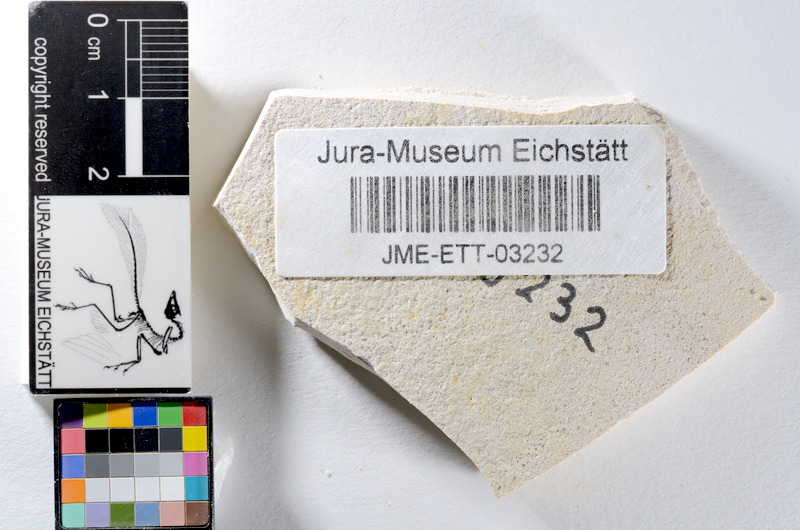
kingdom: Animalia
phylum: Chordata
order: Salmoniformes
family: Orthogonikleithridae
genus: Orthogonikleithrus
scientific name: Orthogonikleithrus hoelli
